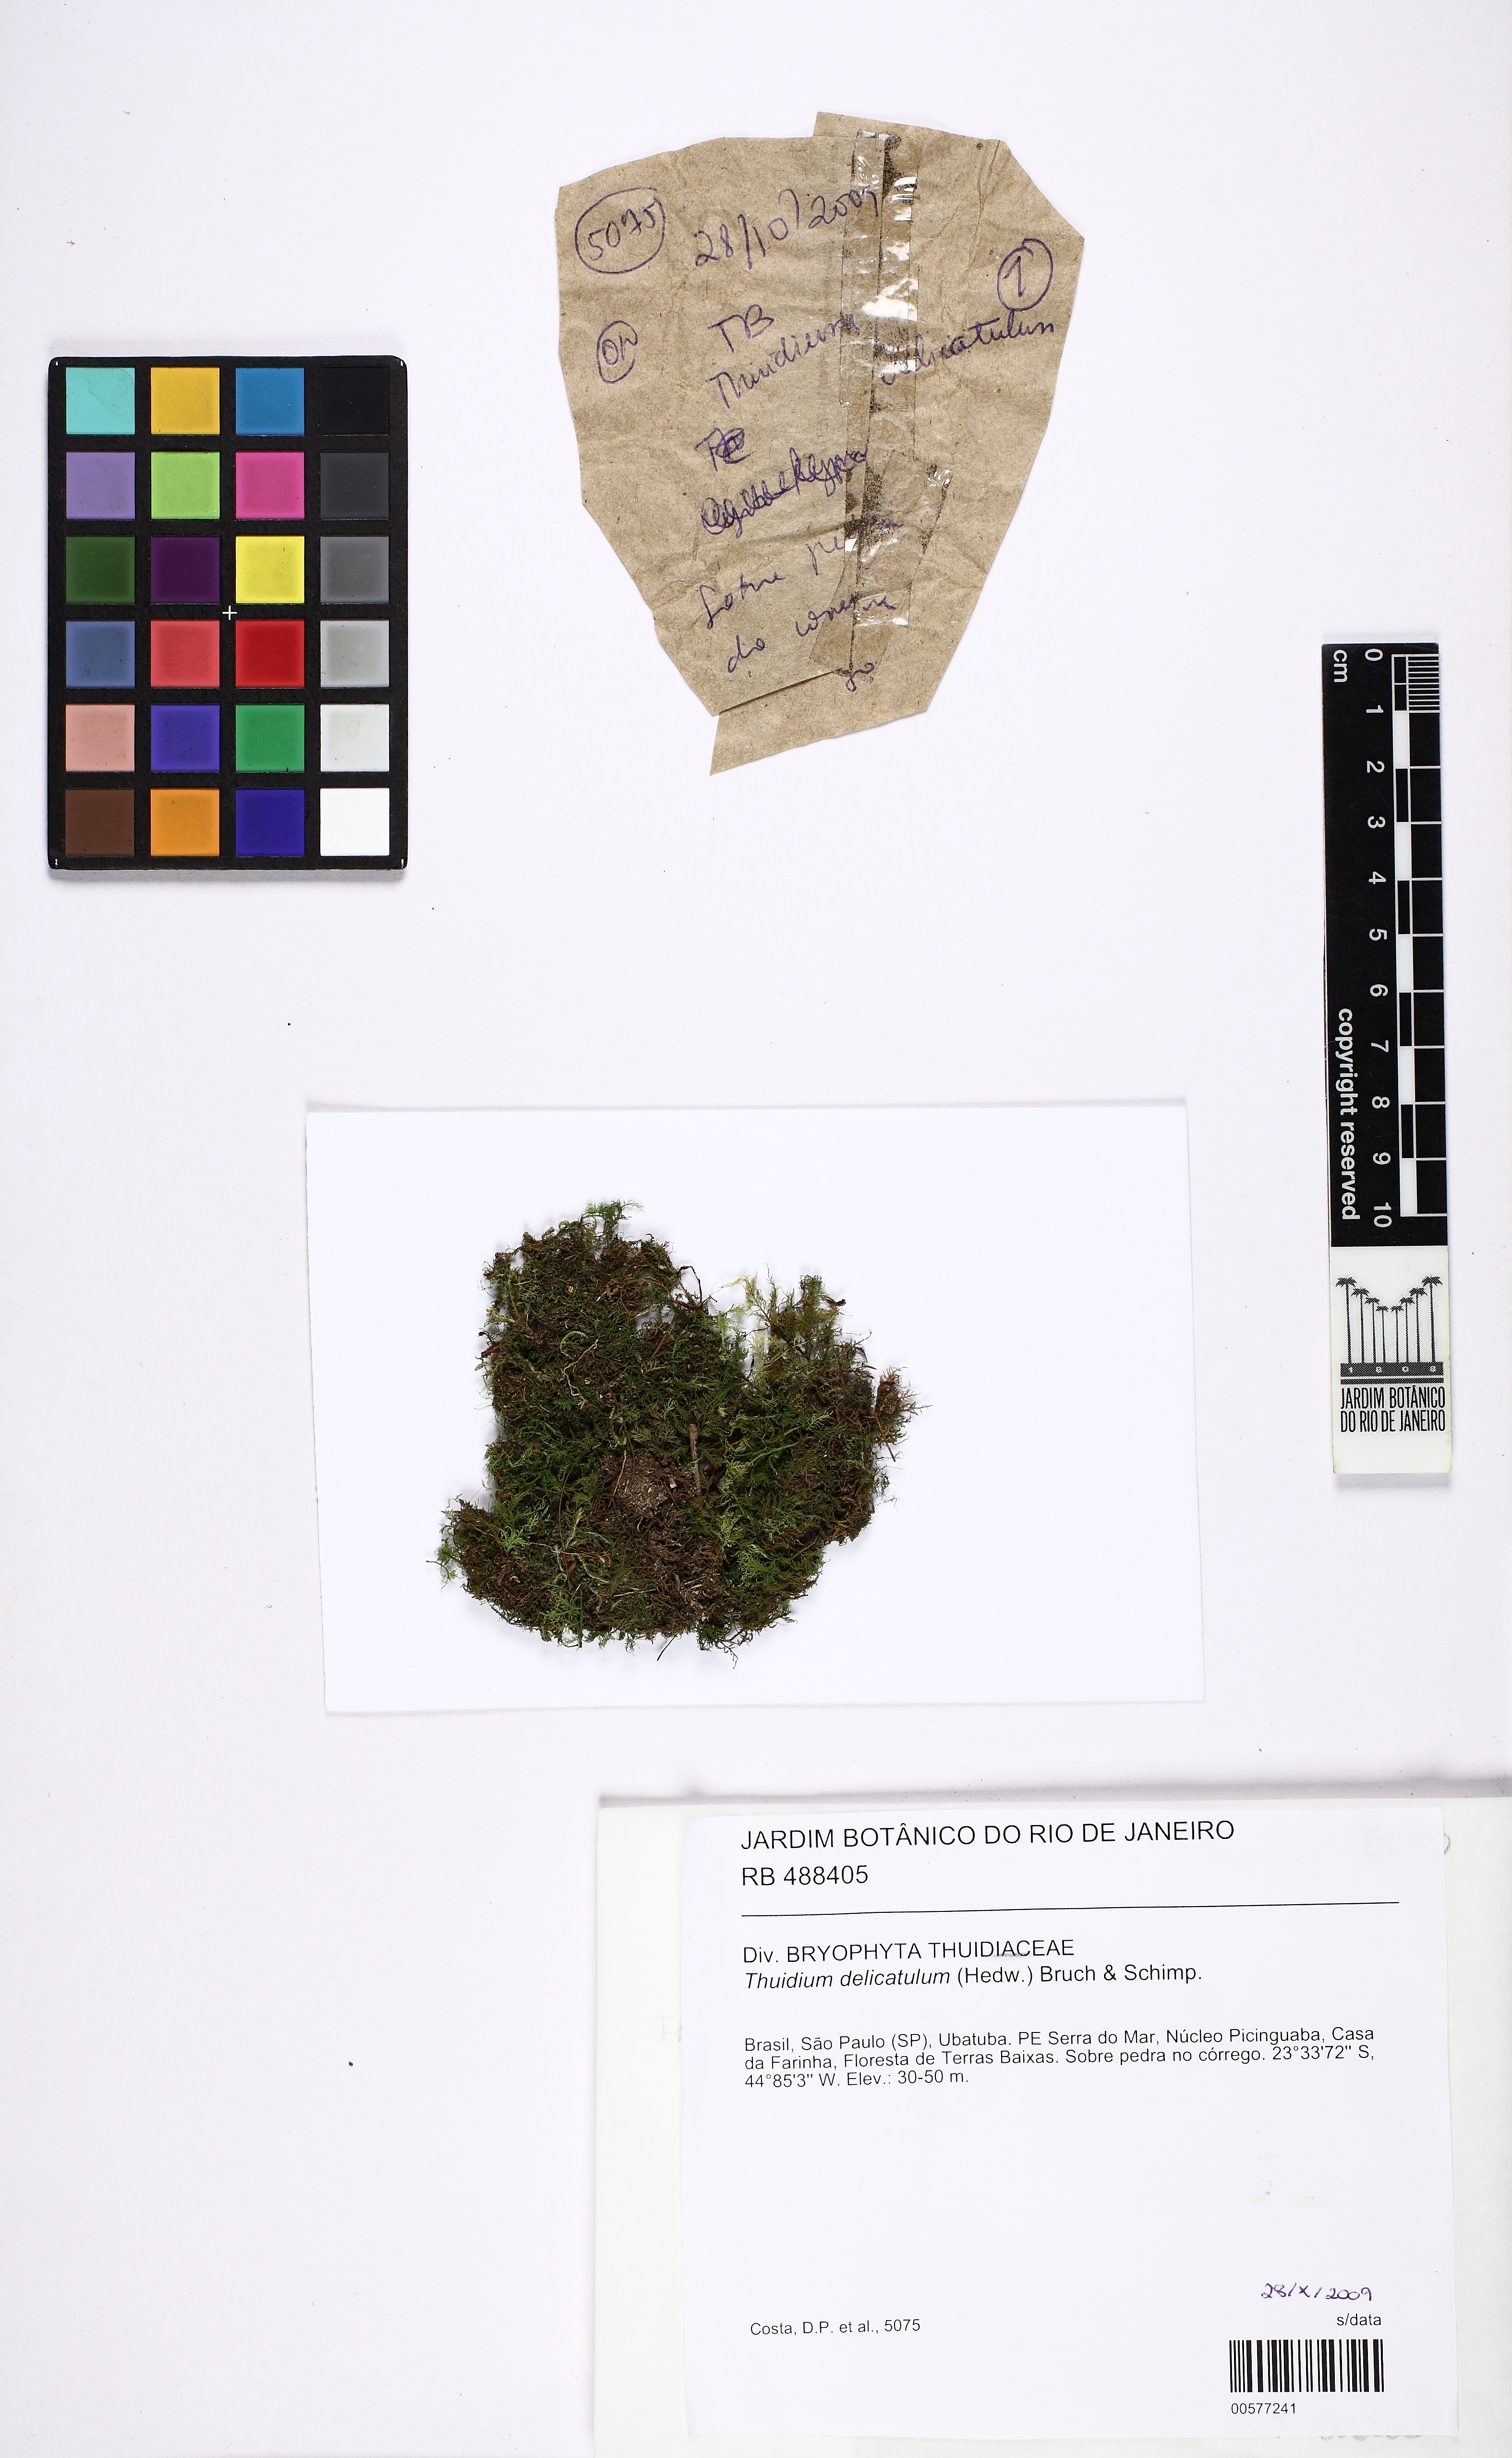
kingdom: Plantae
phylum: Bryophyta
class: Bryopsida
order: Hypnales
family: Thuidiaceae
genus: Thuidium
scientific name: Thuidium delicatulum
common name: Delicate fern moss
